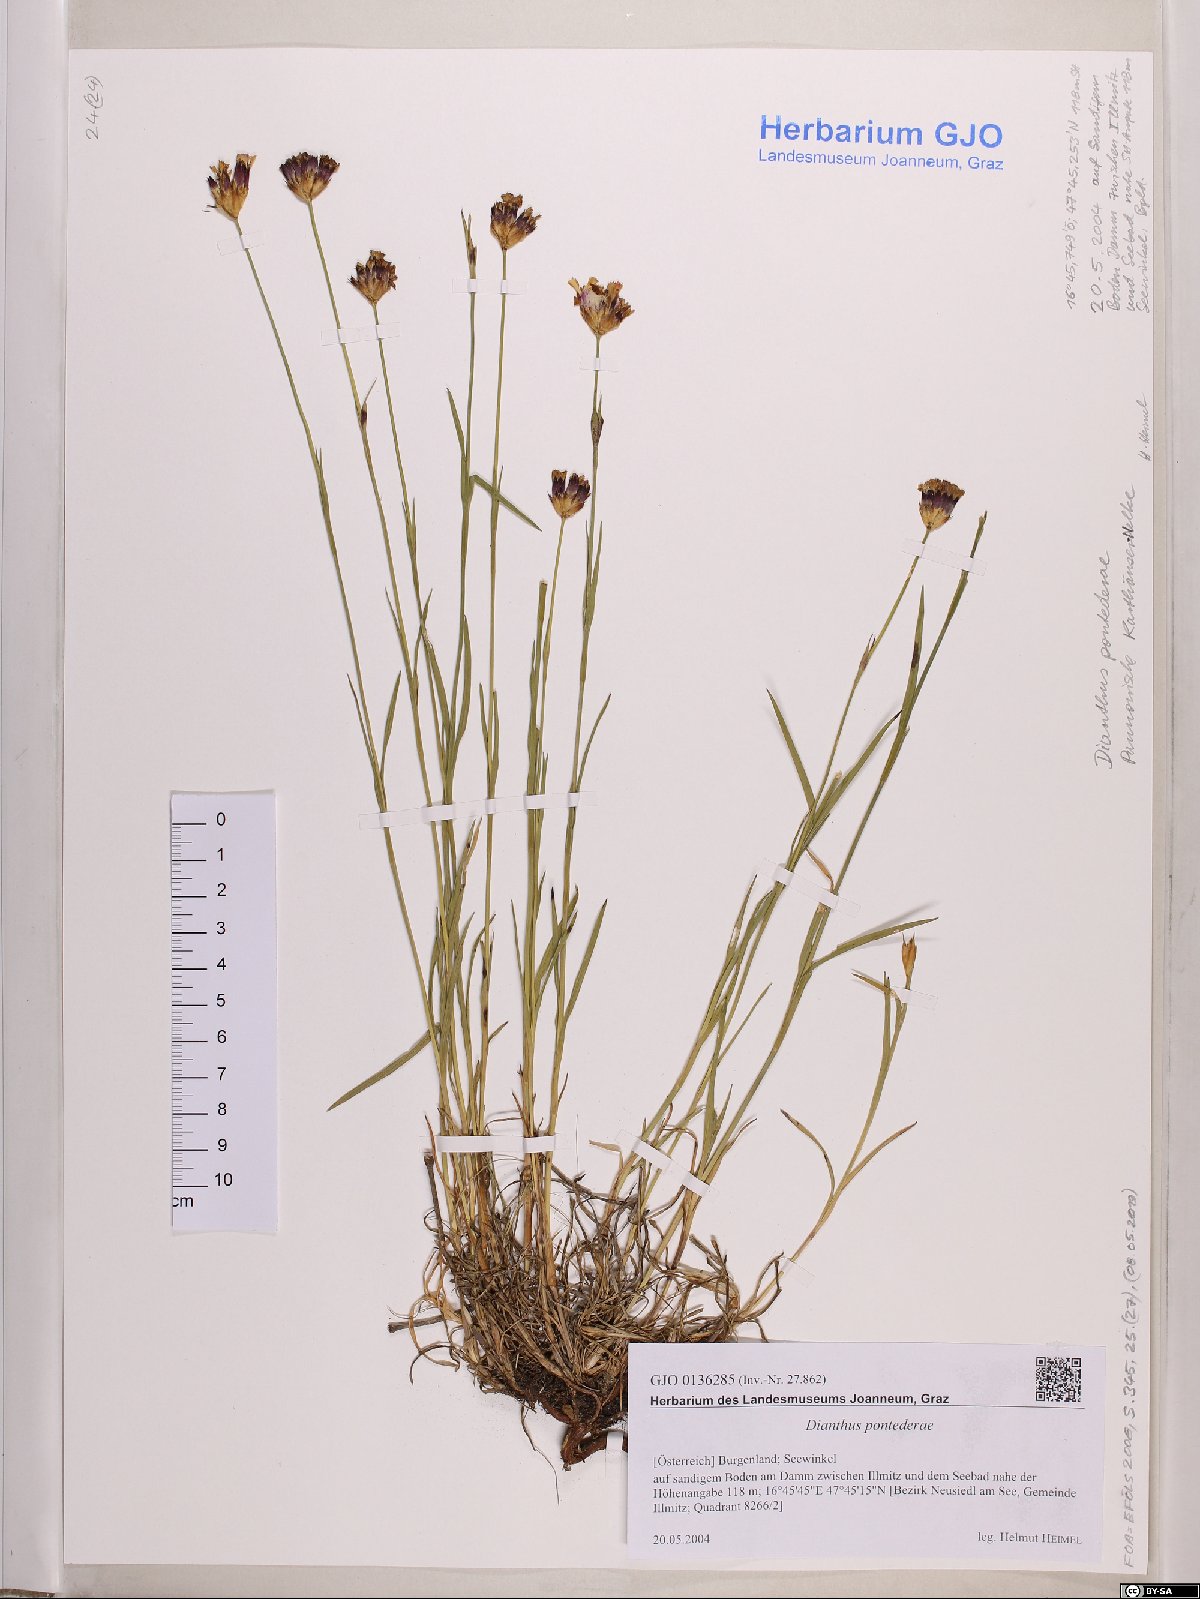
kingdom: Plantae
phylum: Tracheophyta
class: Magnoliopsida
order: Caryophyllales
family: Caryophyllaceae
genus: Dianthus
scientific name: Dianthus pontederae
